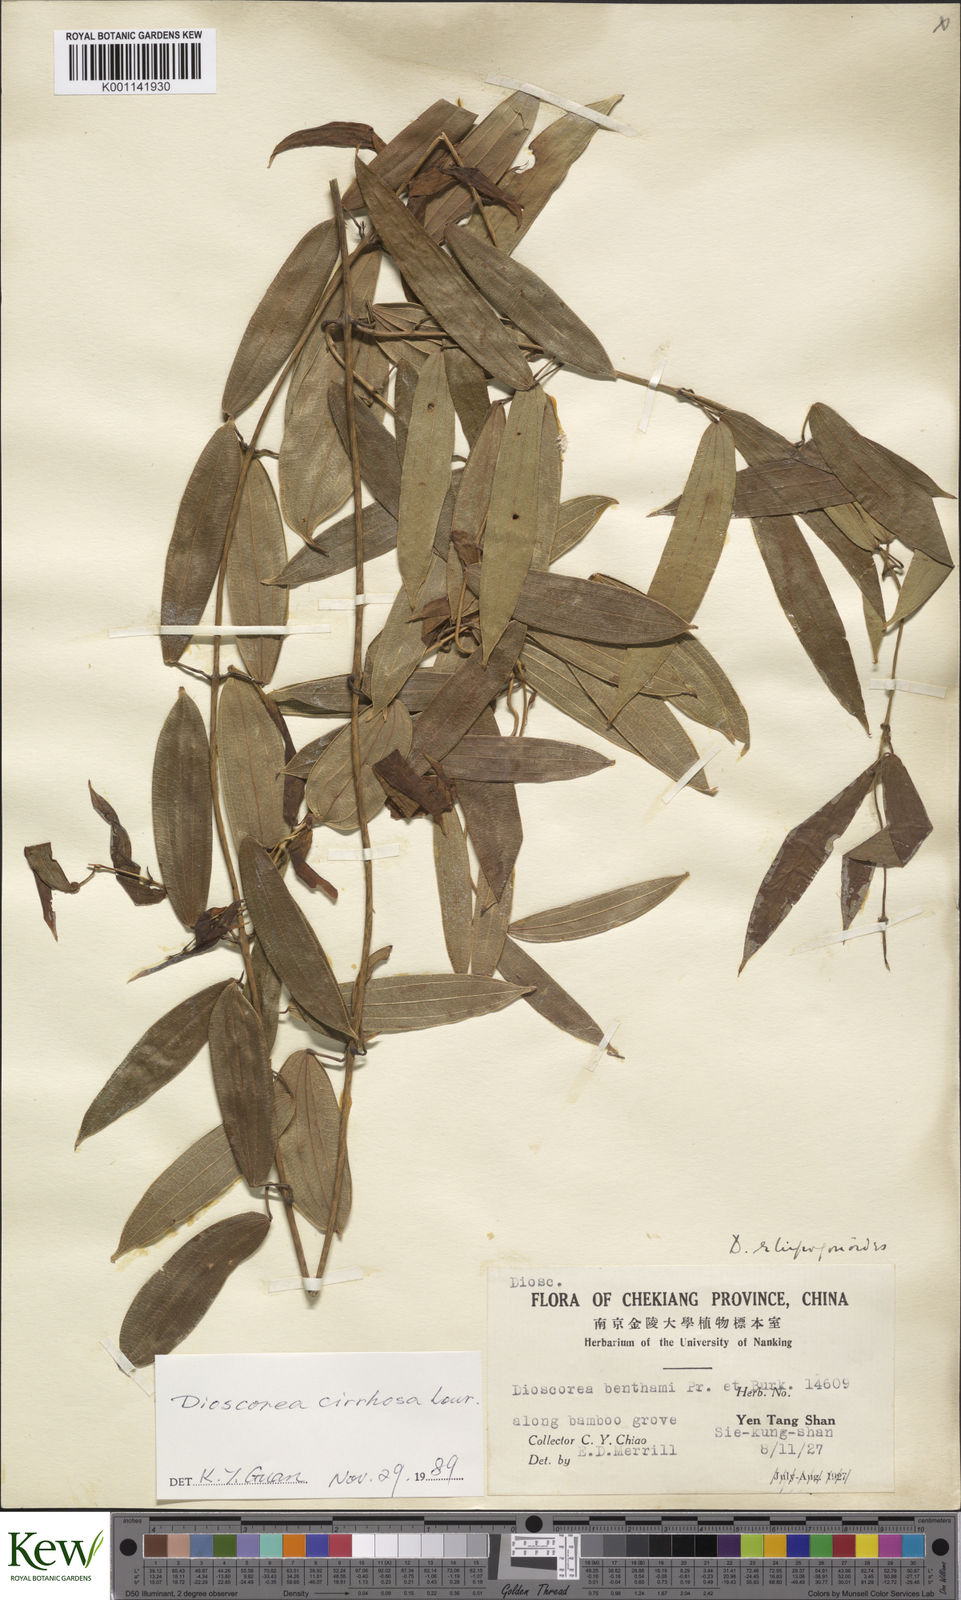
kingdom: Plantae
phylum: Tracheophyta
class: Liliopsida
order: Dioscoreales
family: Dioscoreaceae
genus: Dioscorea
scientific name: Dioscorea cirrhosa
